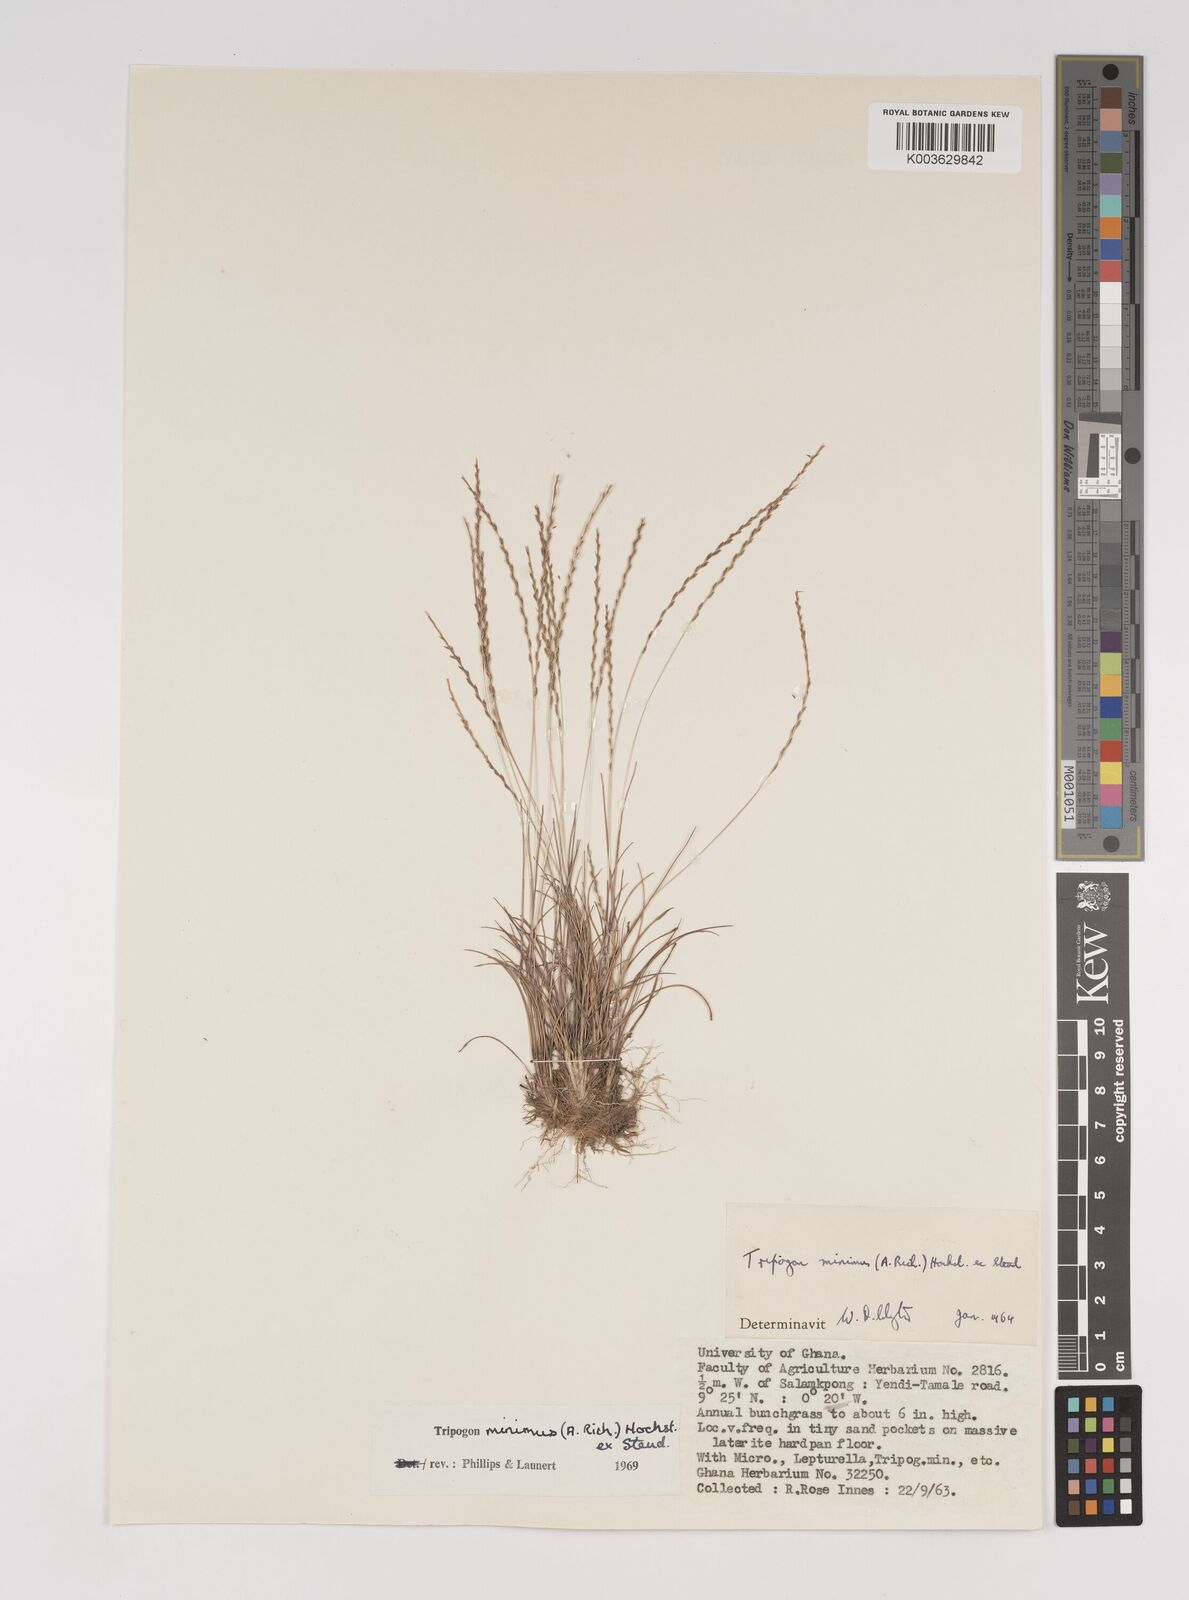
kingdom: Plantae
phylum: Tracheophyta
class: Liliopsida
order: Poales
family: Poaceae
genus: Tripogonella
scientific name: Tripogonella minima
